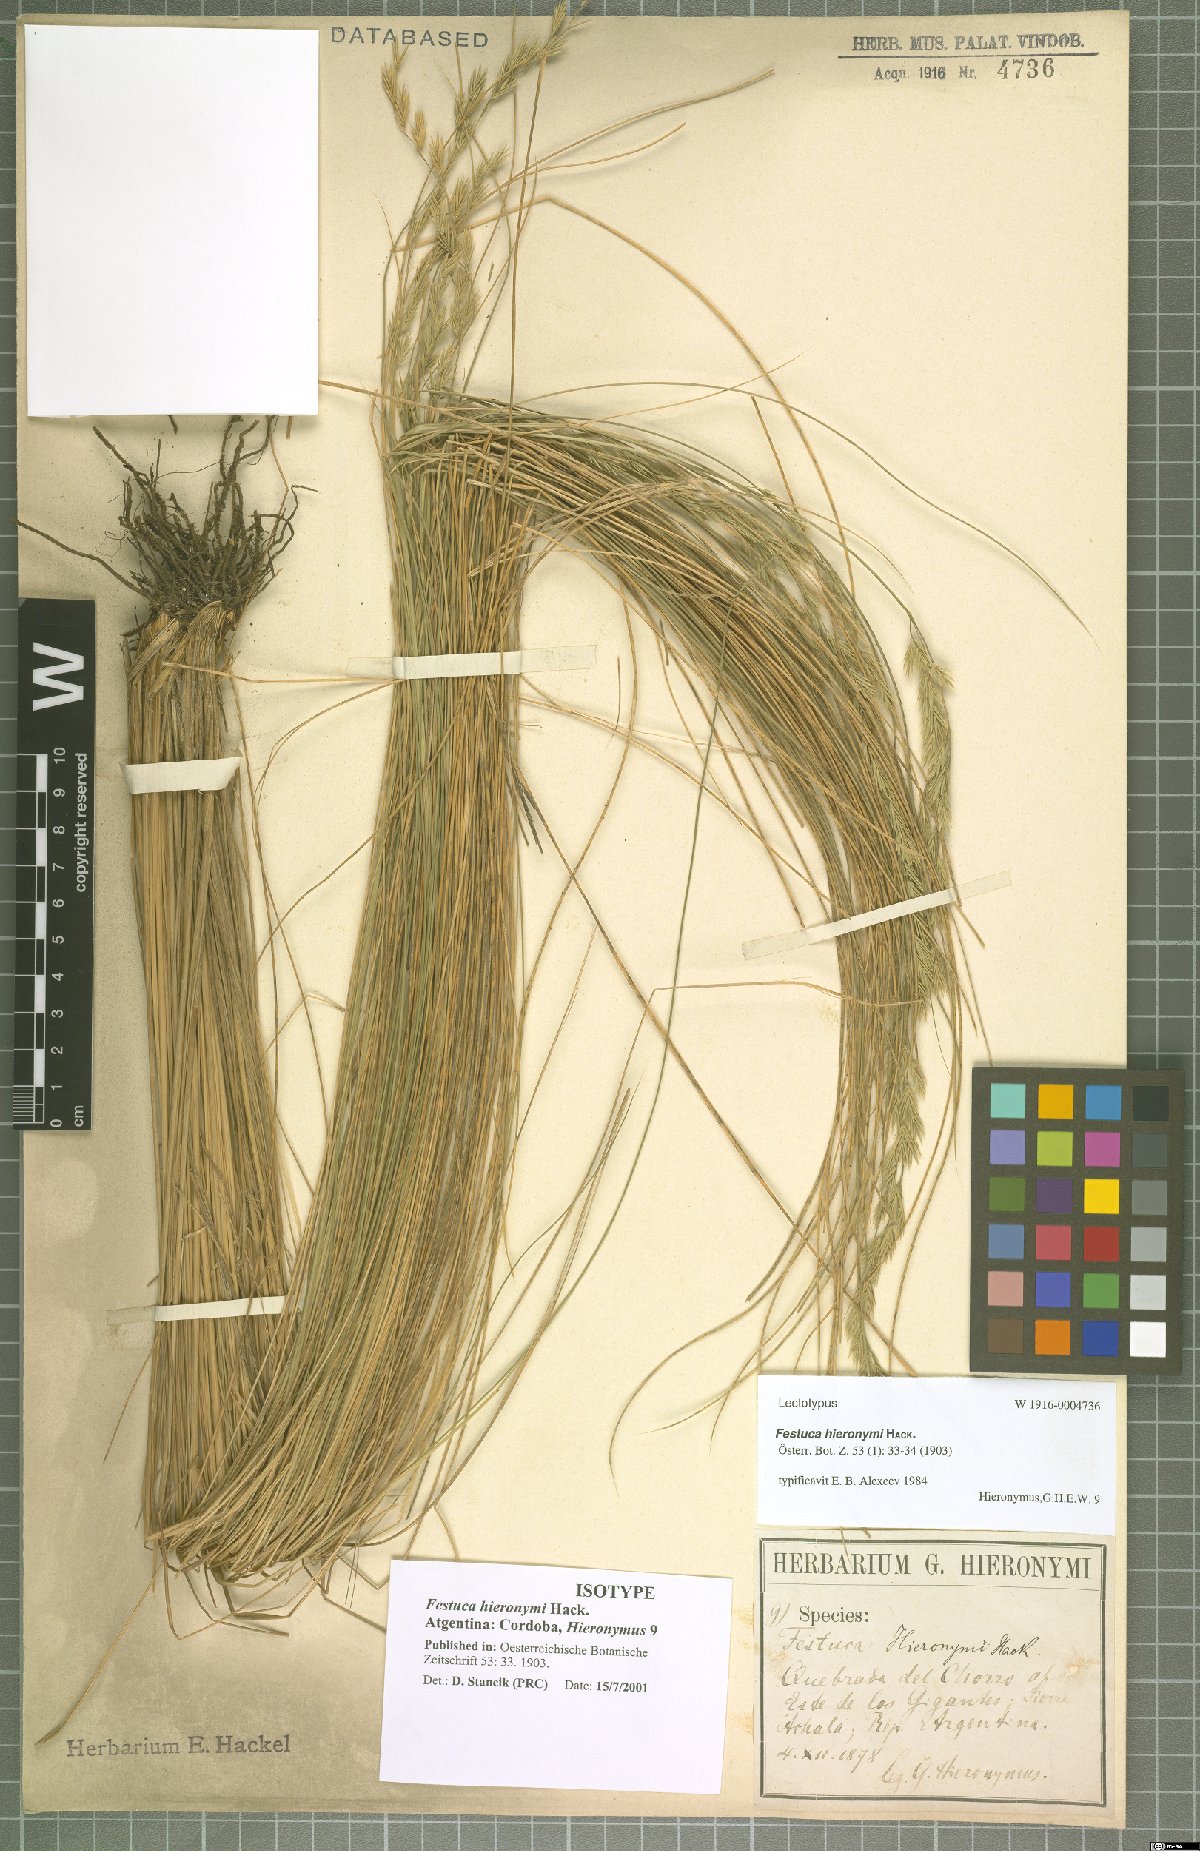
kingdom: Plantae
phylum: Tracheophyta
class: Liliopsida
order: Poales
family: Poaceae
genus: Festuca
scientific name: Festuca hieronymi
